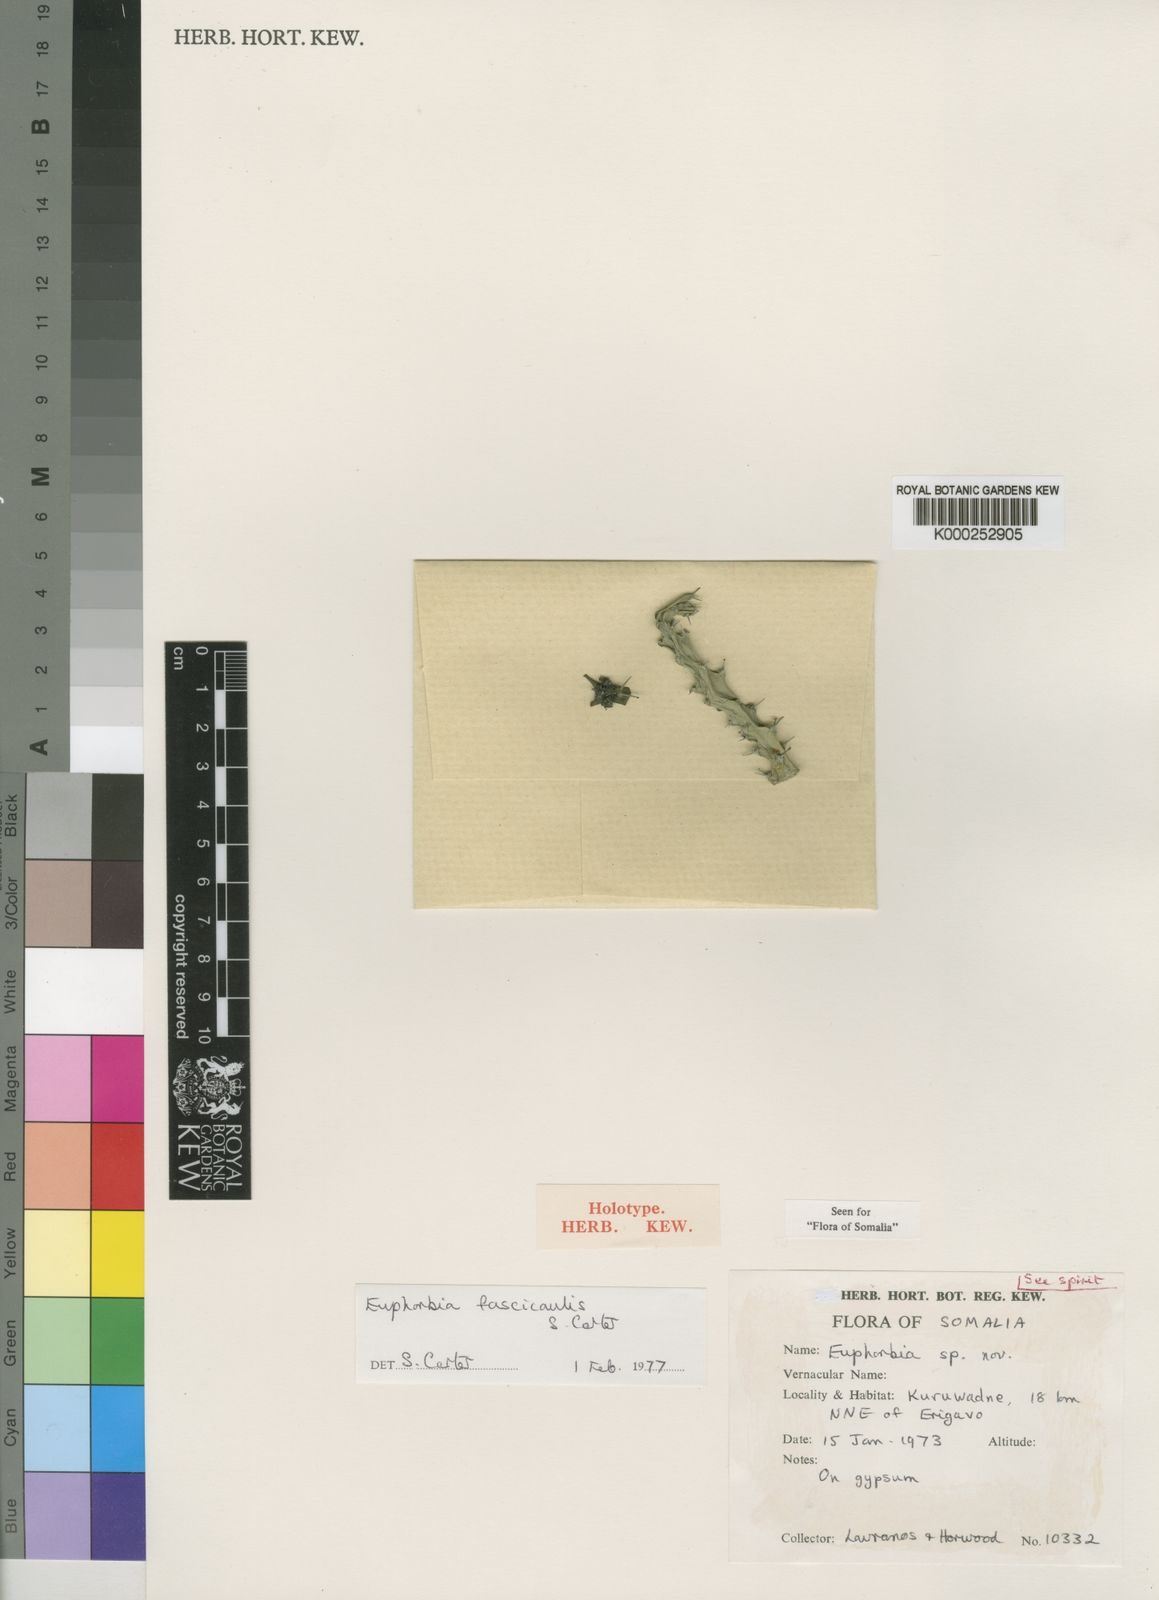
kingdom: Plantae
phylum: Tracheophyta
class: Magnoliopsida
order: Malpighiales
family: Euphorbiaceae
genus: Euphorbia
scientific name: Euphorbia fascicaulis
